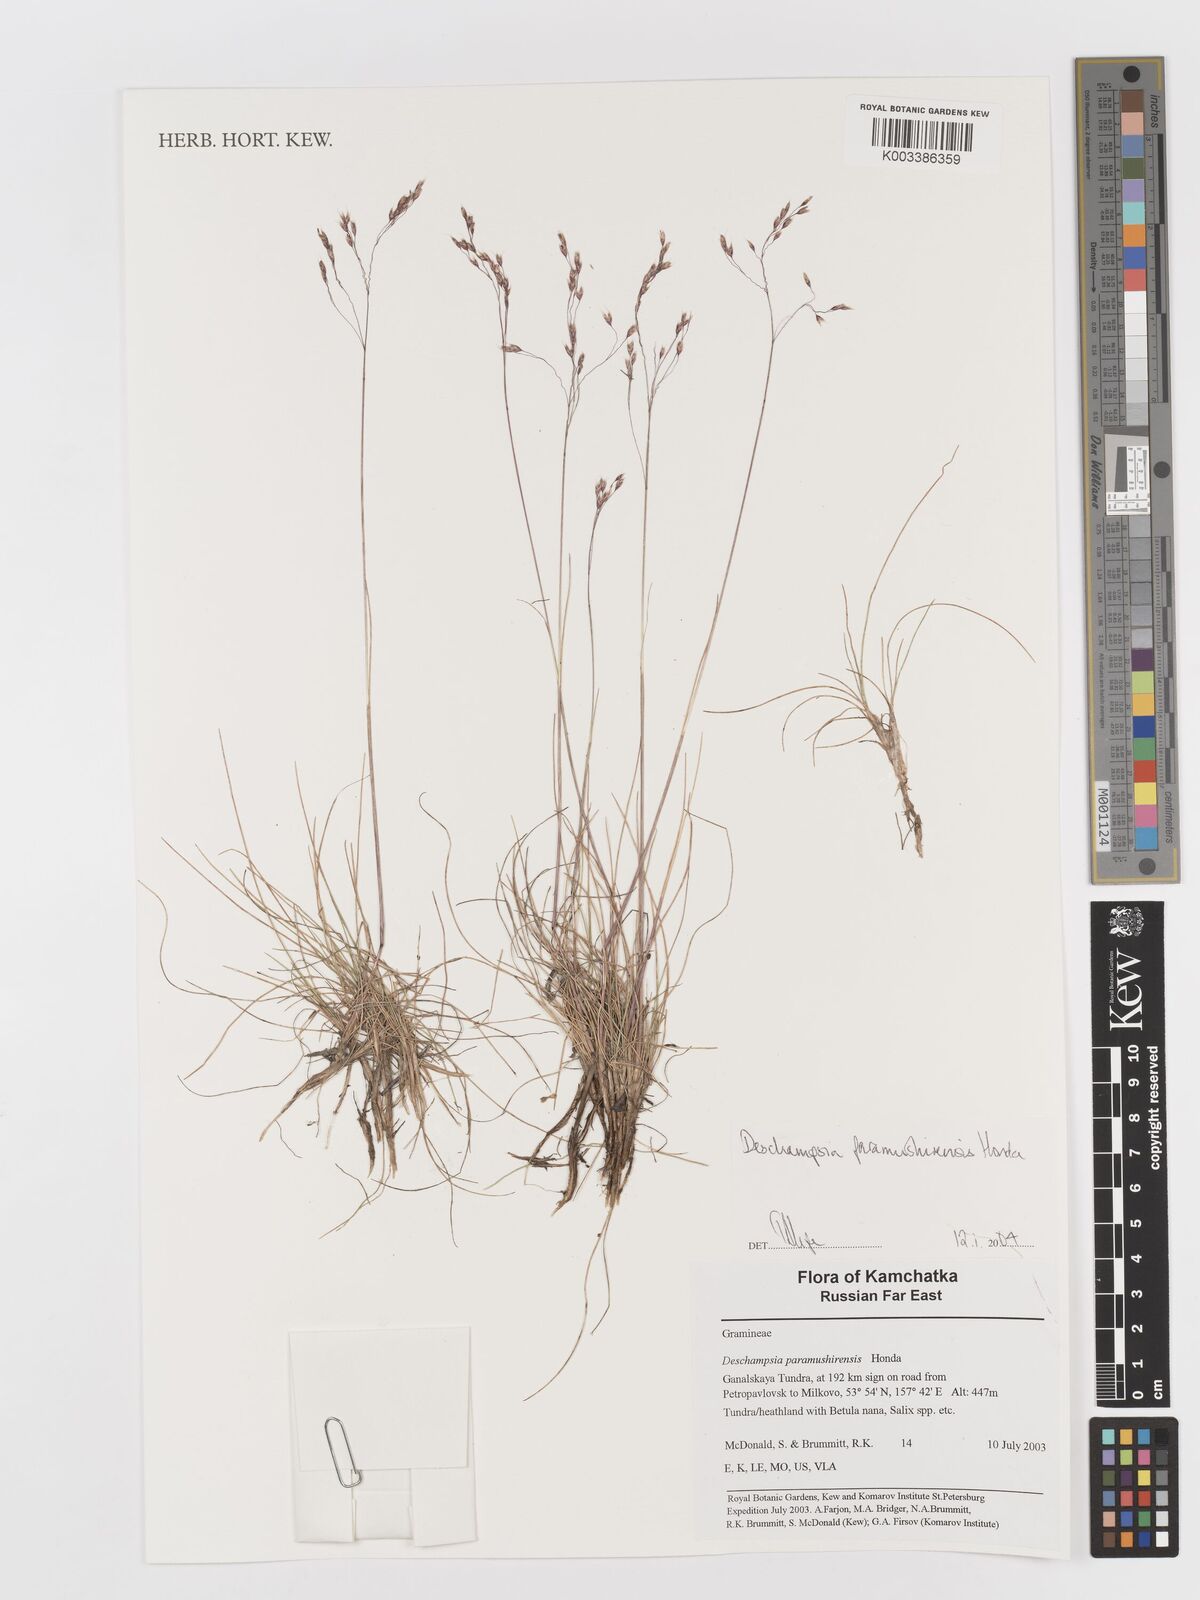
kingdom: Plantae
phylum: Tracheophyta
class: Liliopsida
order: Poales
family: Poaceae
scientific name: Poaceae
